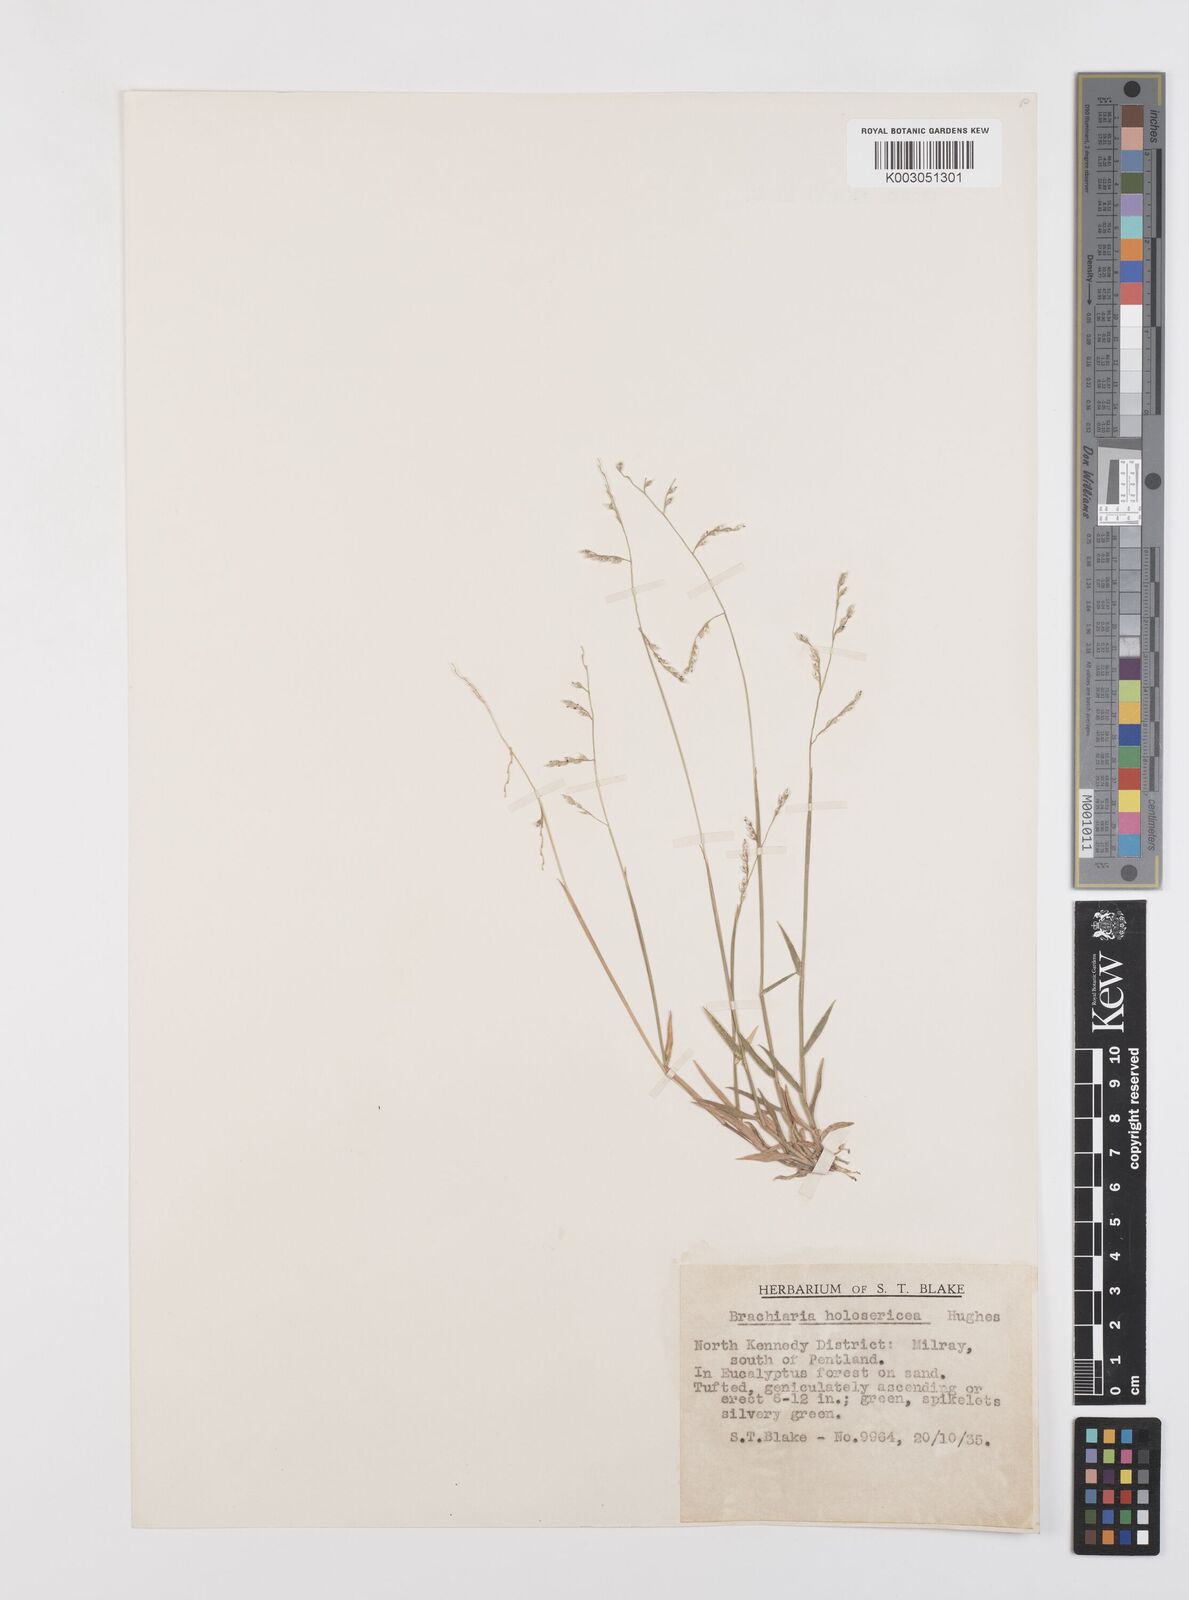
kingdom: Plantae
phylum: Tracheophyta
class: Liliopsida
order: Poales
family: Poaceae
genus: Urochloa
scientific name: Urochloa holosericea
